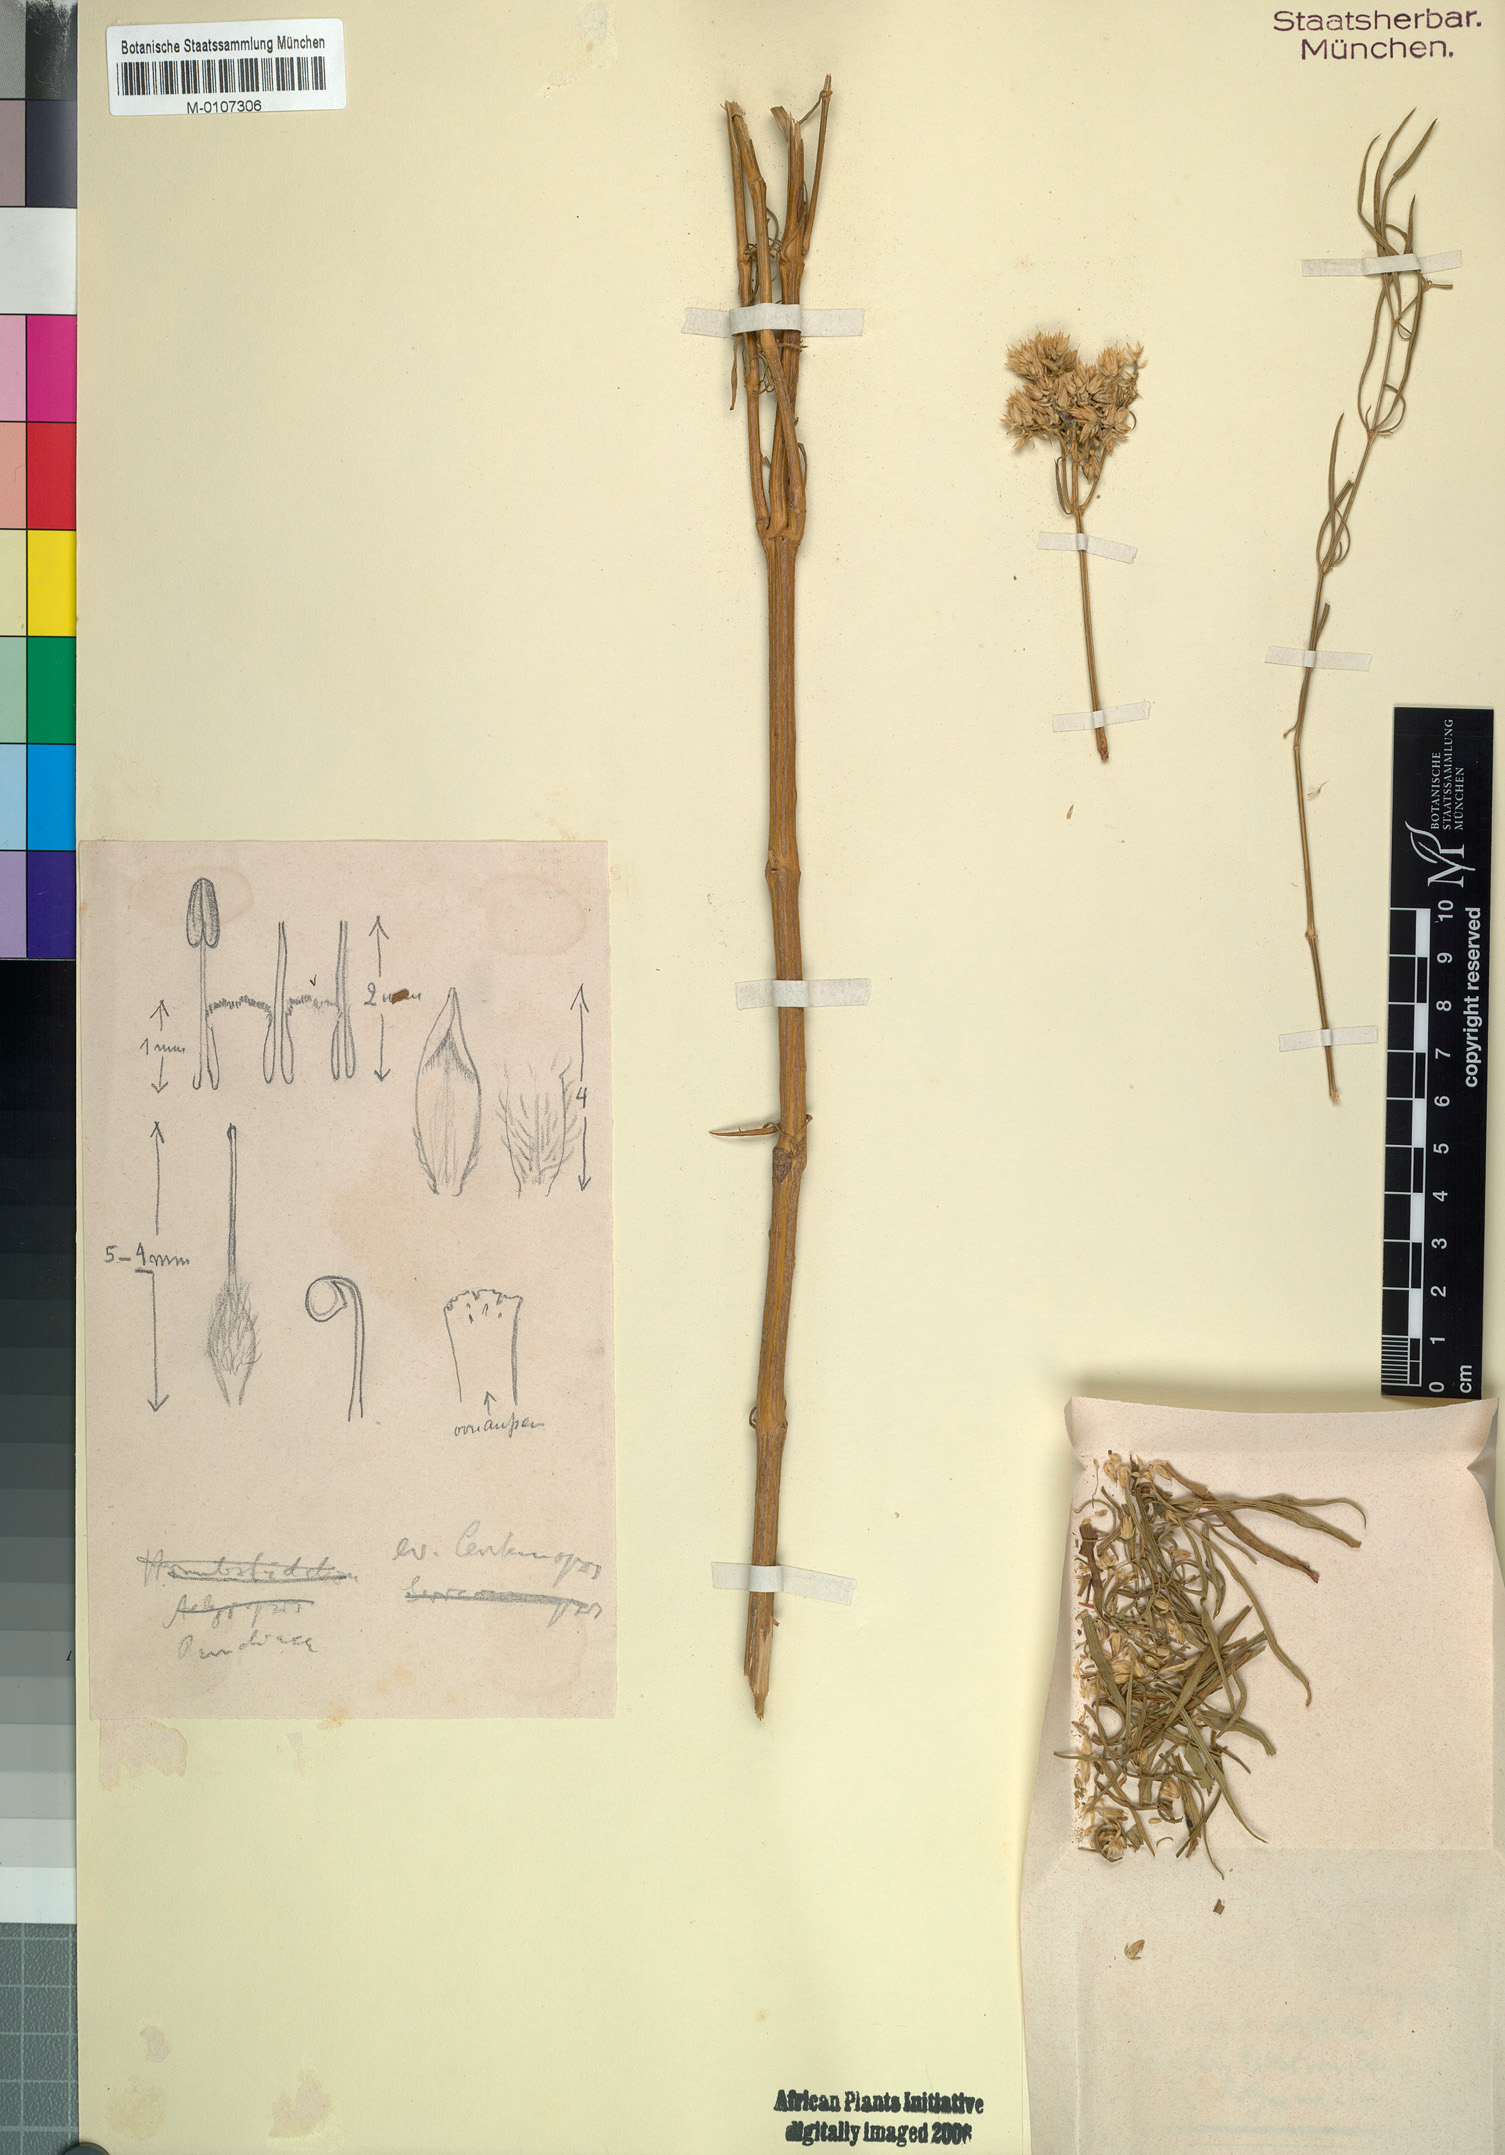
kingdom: Plantae
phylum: Tracheophyta
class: Magnoliopsida
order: Caryophyllales
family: Amaranthaceae
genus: Centemopsis
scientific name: Centemopsis fastigiata
